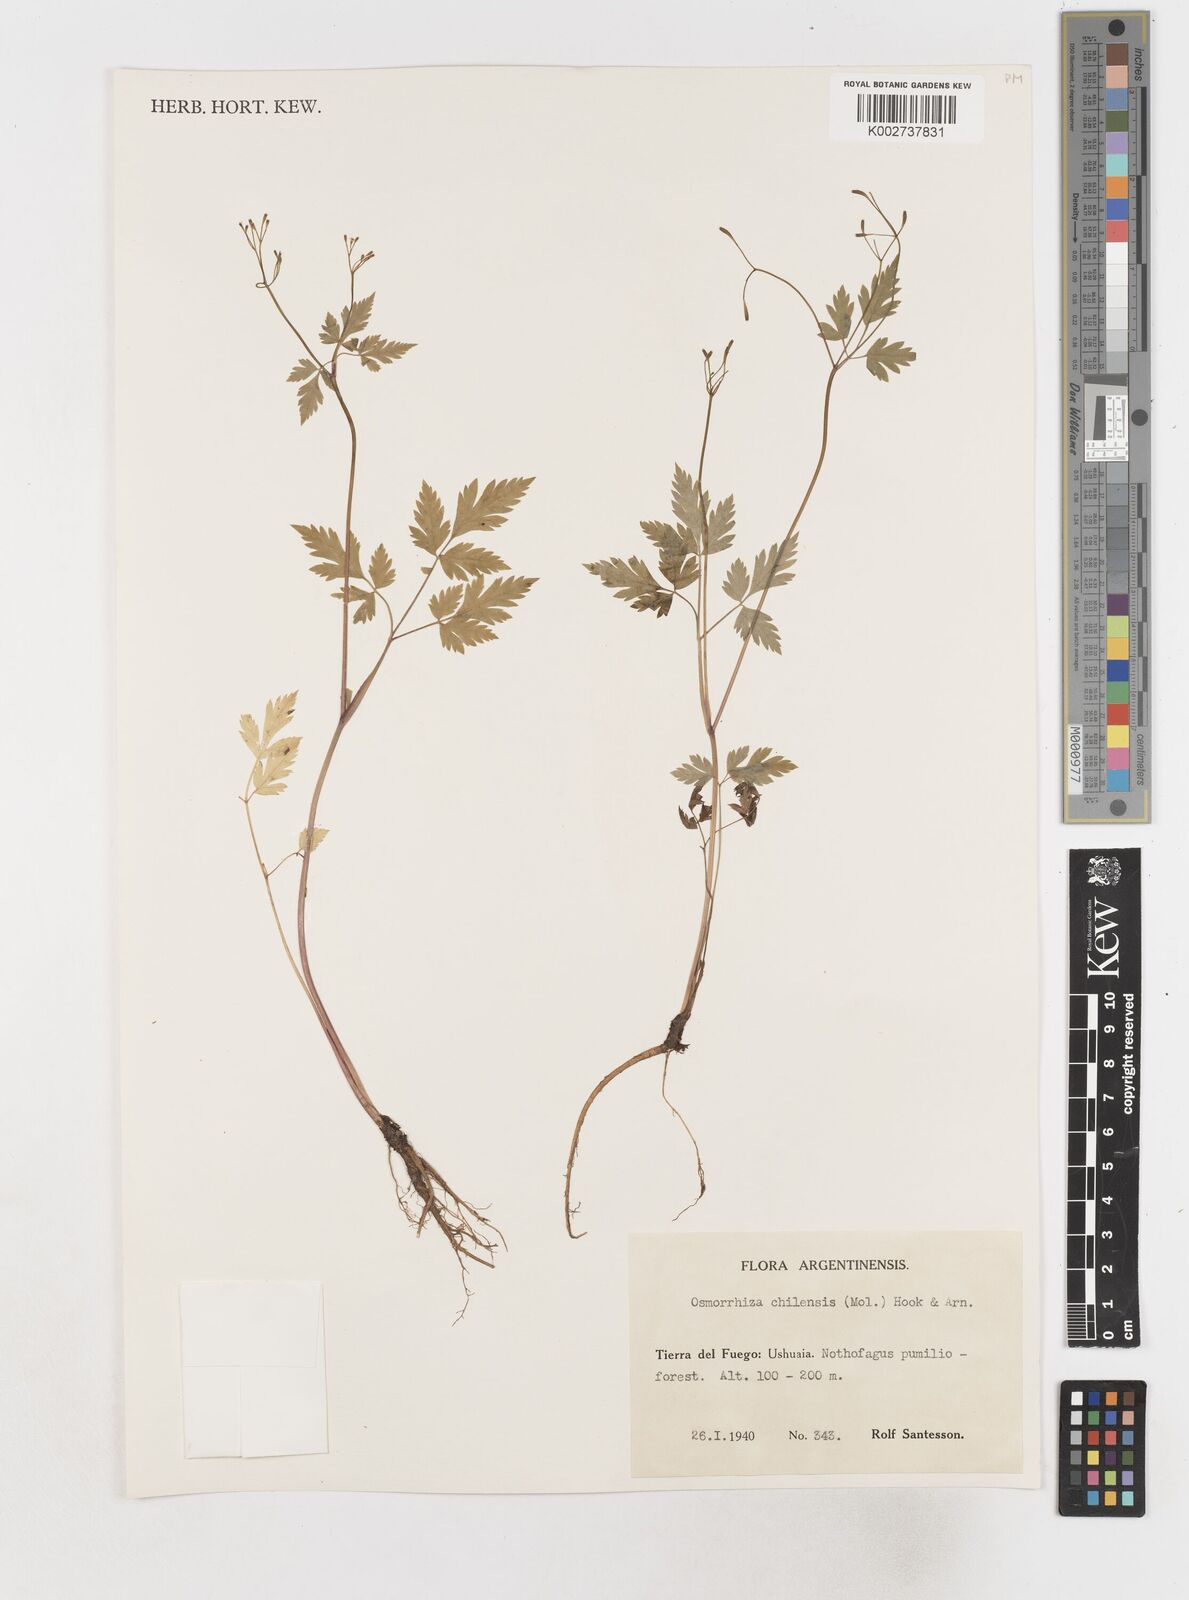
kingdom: Plantae
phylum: Tracheophyta
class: Magnoliopsida
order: Apiales
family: Apiaceae
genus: Osmorhiza
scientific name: Osmorhiza berteroi
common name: Mountain sweet cicely
